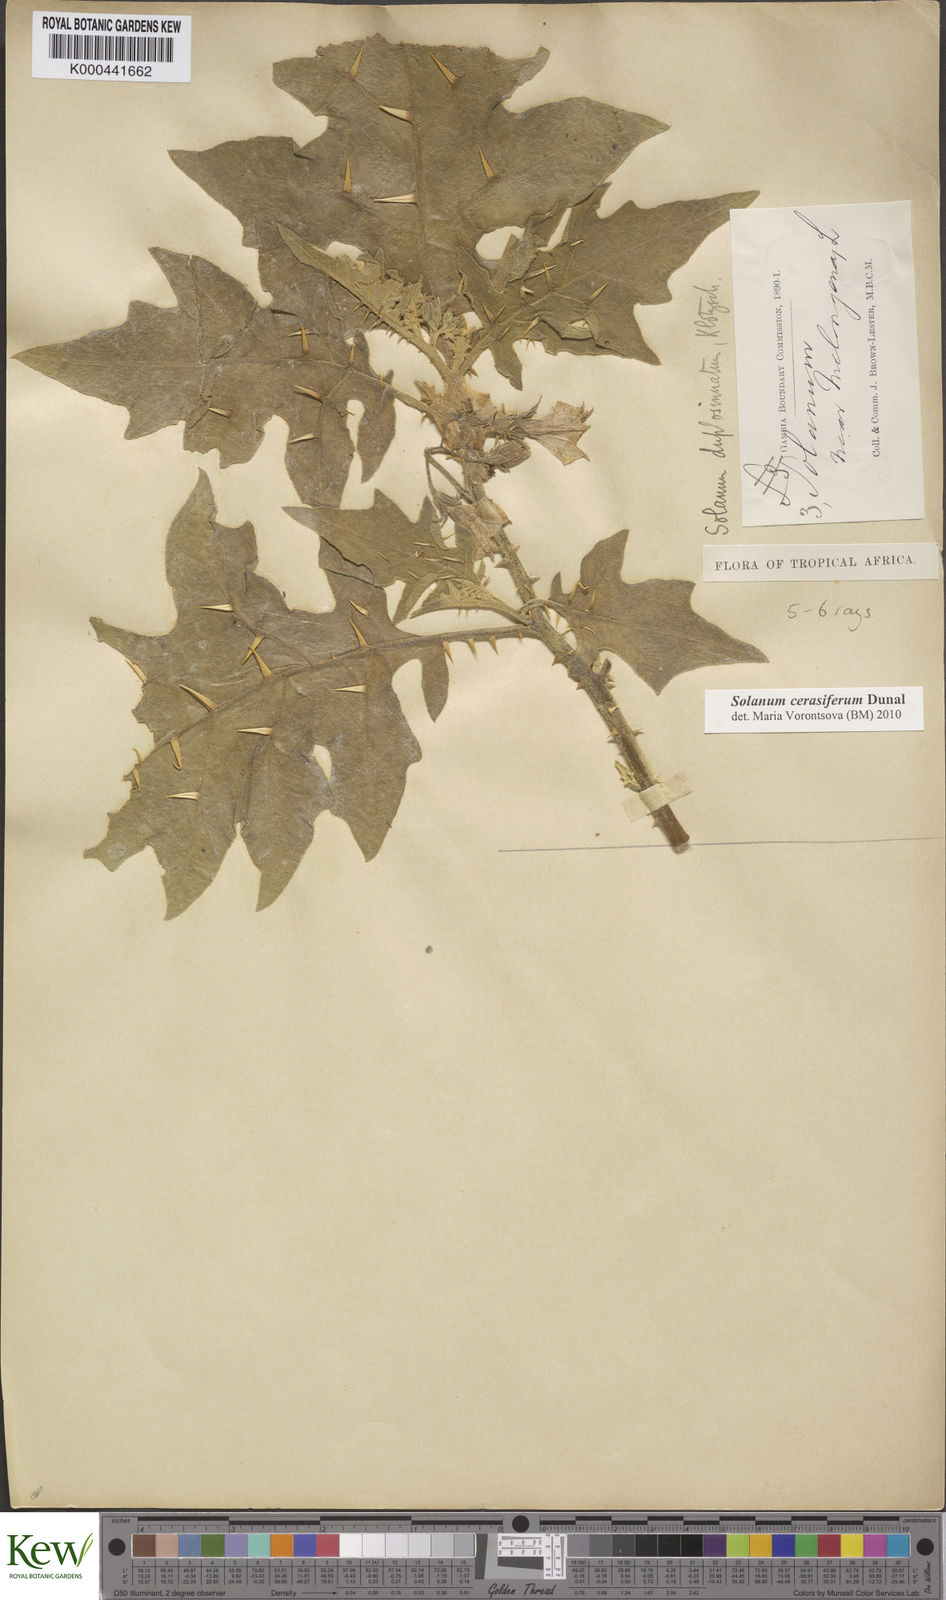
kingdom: Plantae
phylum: Tracheophyta
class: Magnoliopsida
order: Solanales
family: Solanaceae
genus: Solanum
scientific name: Solanum cerasiferum
